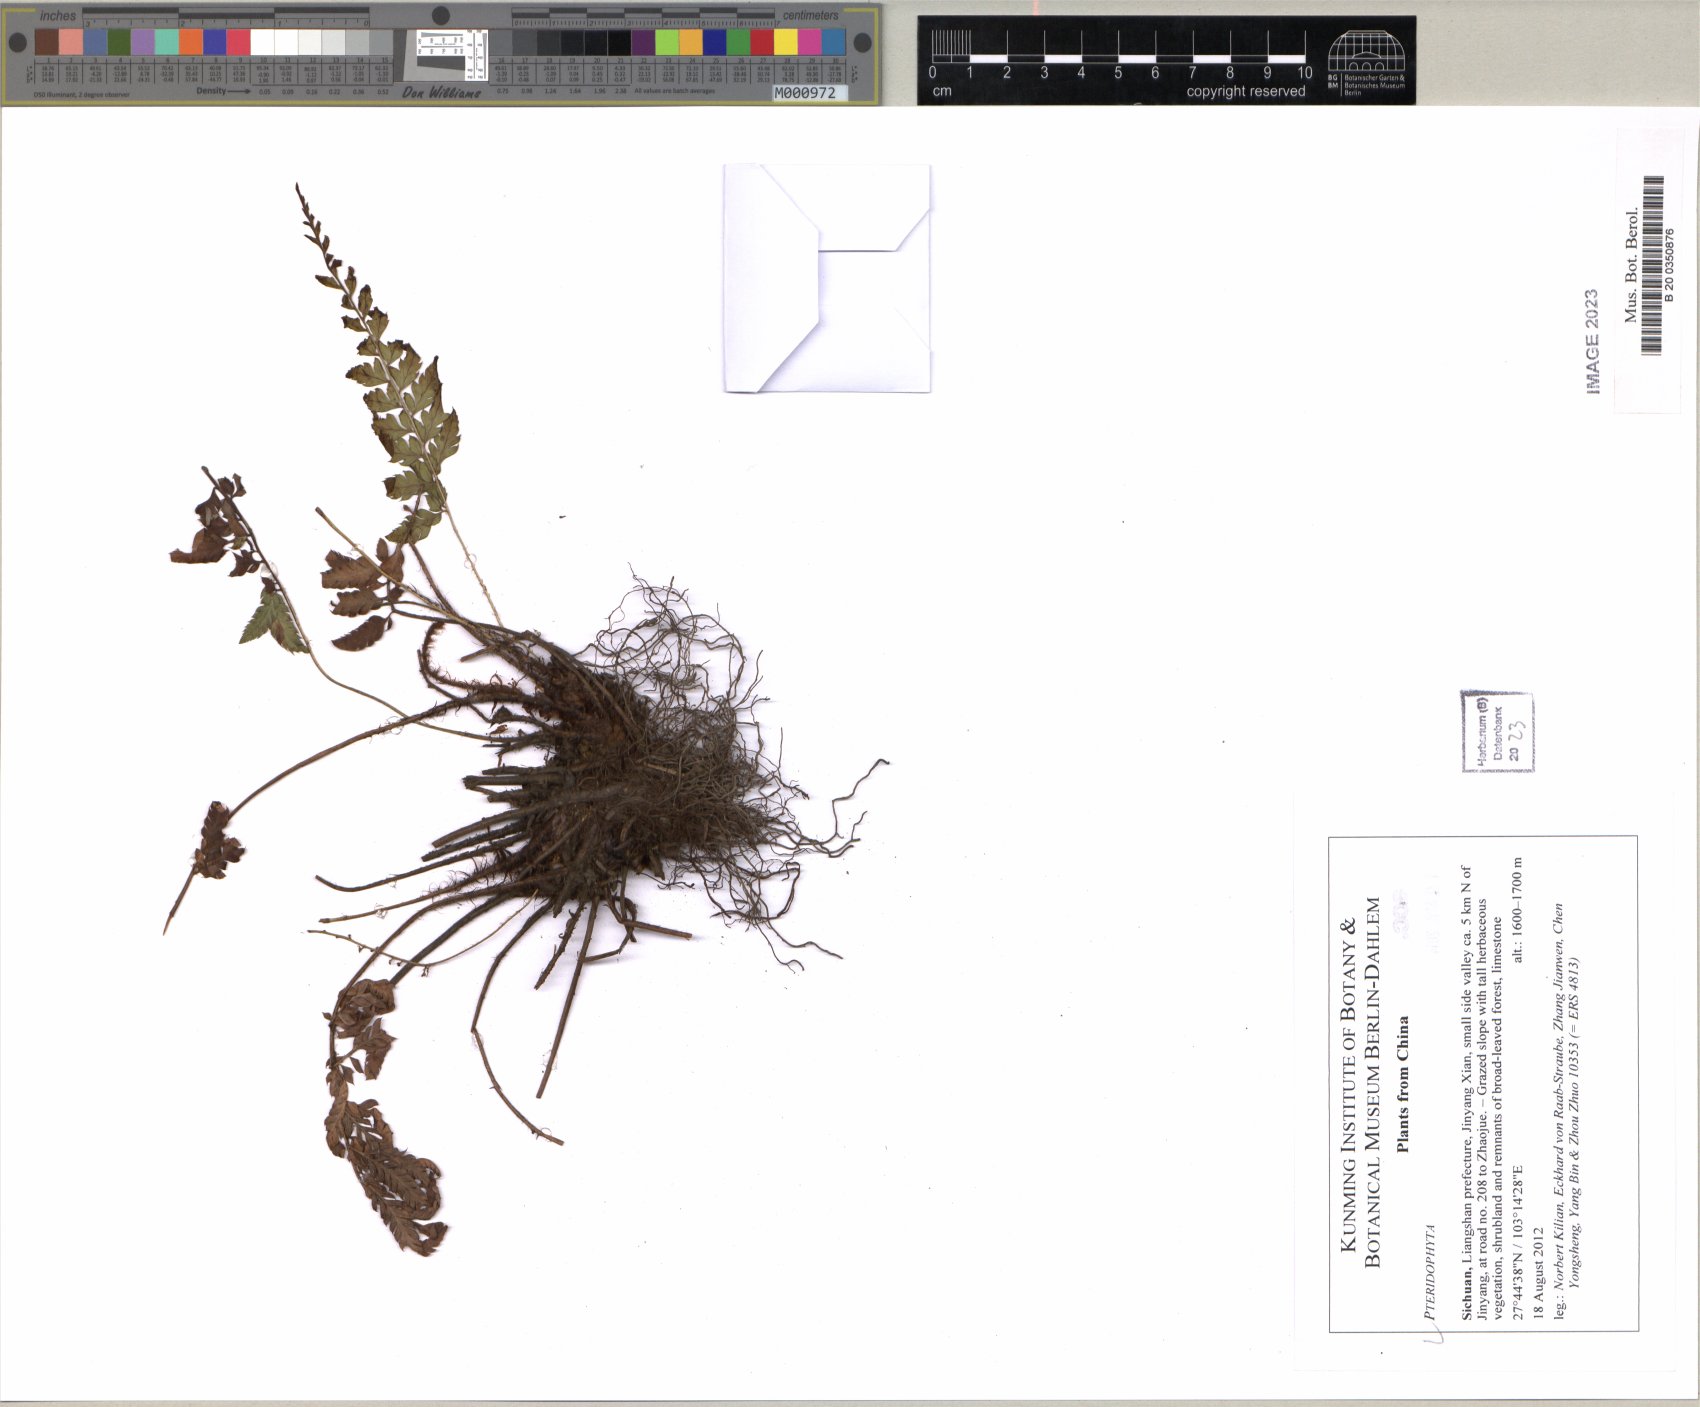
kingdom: Plantae
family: Pteridophyta
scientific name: Pteridophyta
